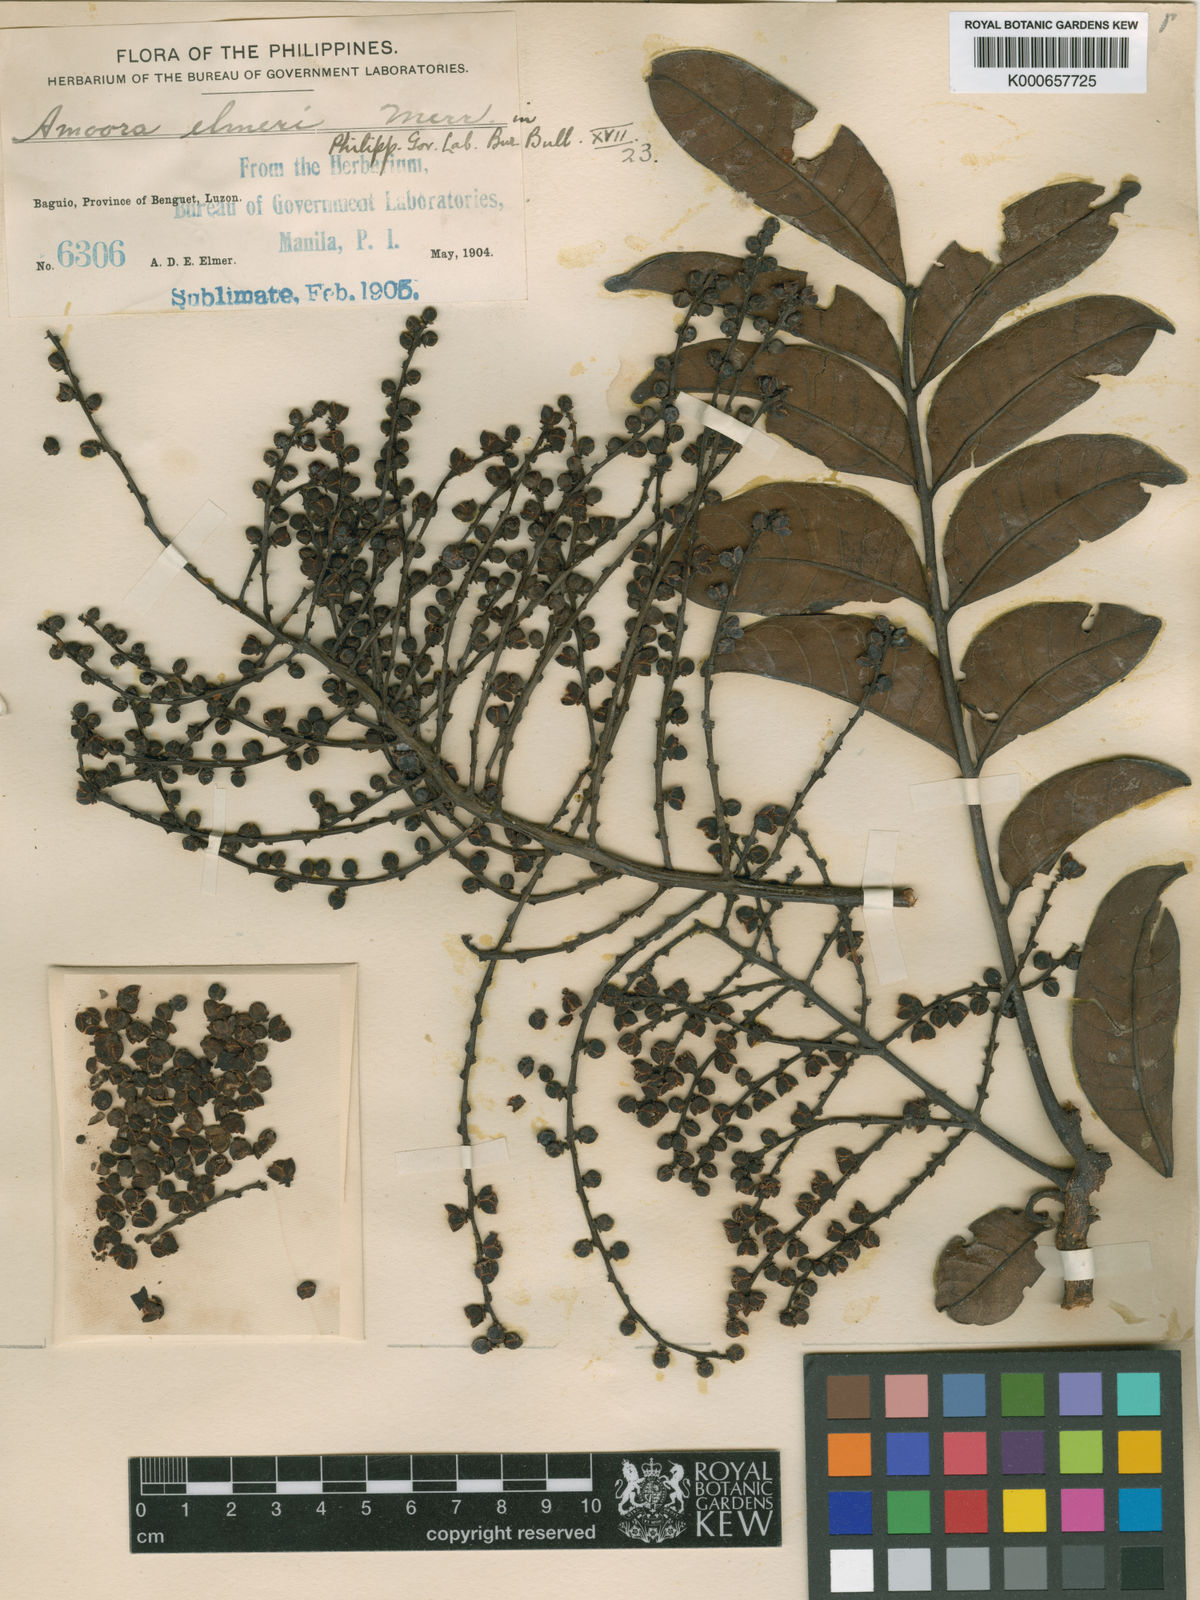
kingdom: Plantae
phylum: Tracheophyta
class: Magnoliopsida
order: Sapindales
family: Meliaceae
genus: Aphanamixis
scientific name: Aphanamixis polystachya
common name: Pithraj tree
